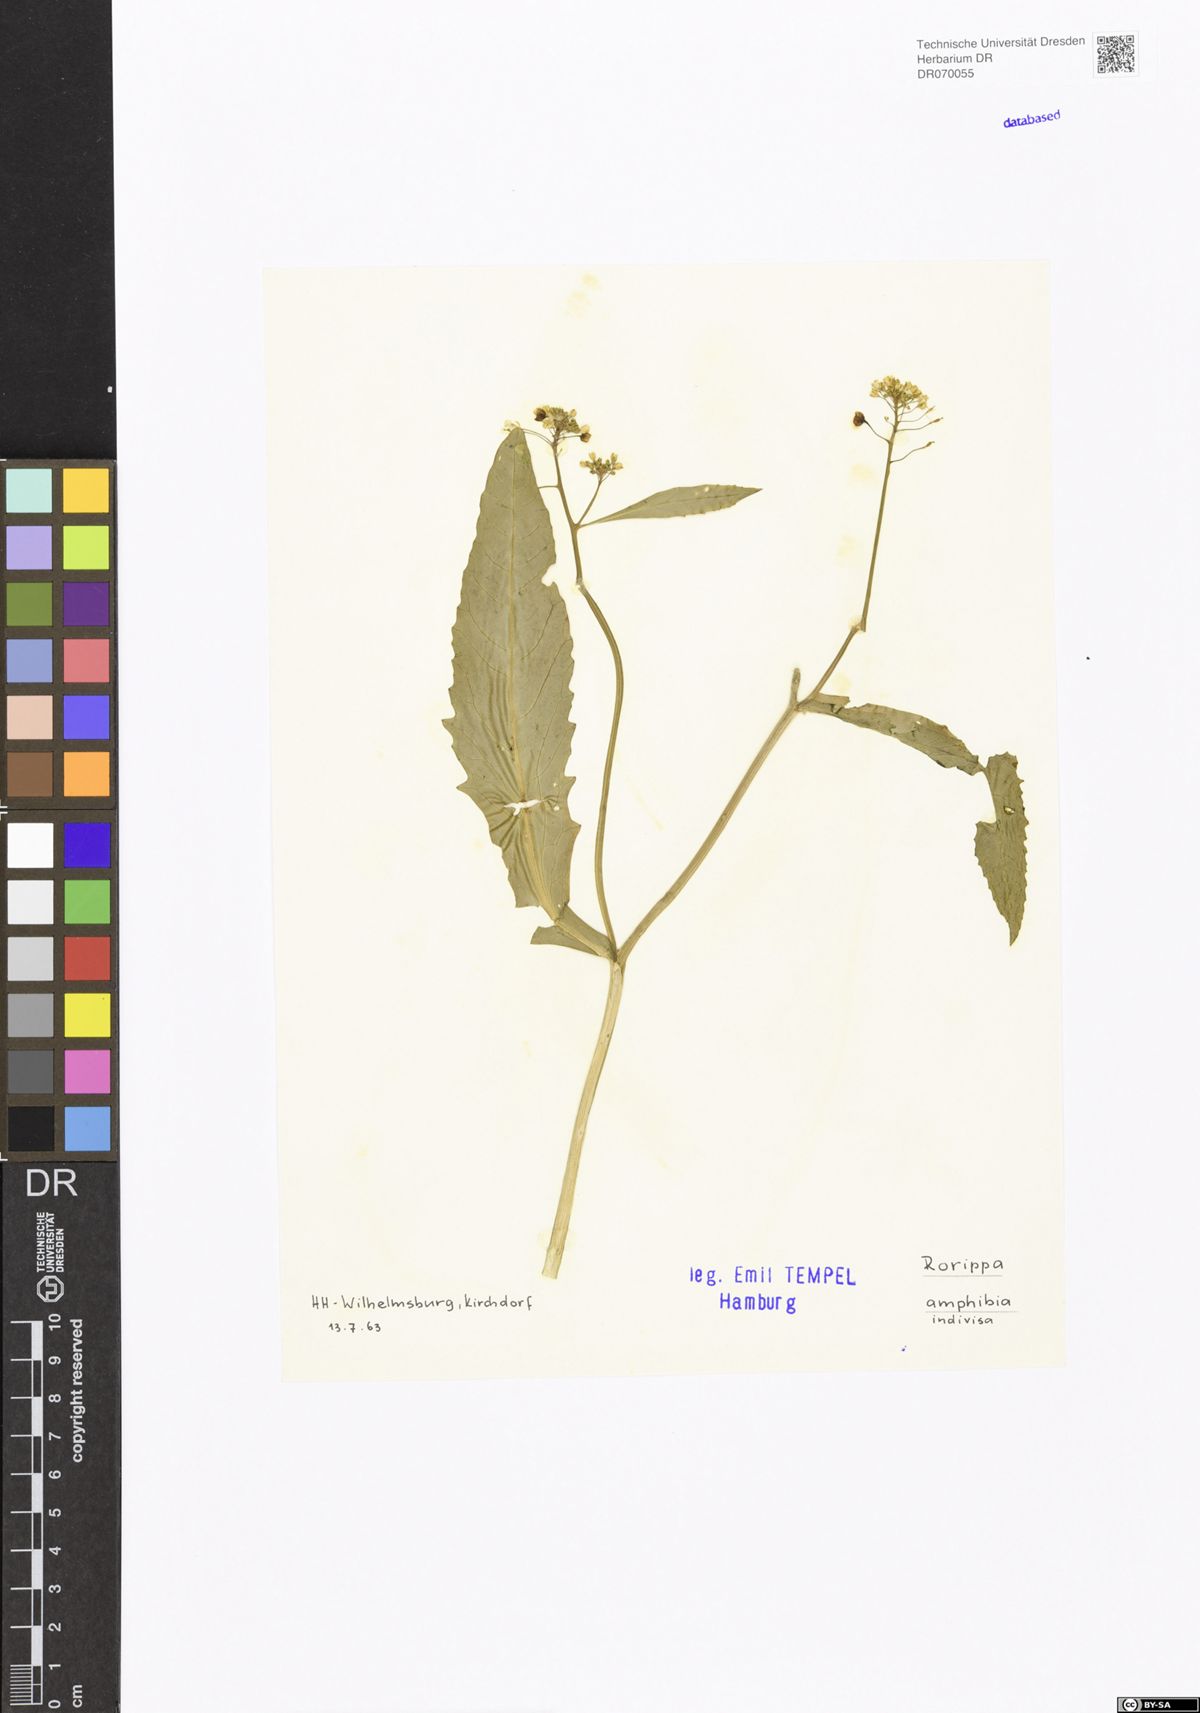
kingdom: Plantae
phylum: Tracheophyta
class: Magnoliopsida
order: Brassicales
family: Brassicaceae
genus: Rorippa
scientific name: Rorippa amphibia
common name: Great yellow-cress
